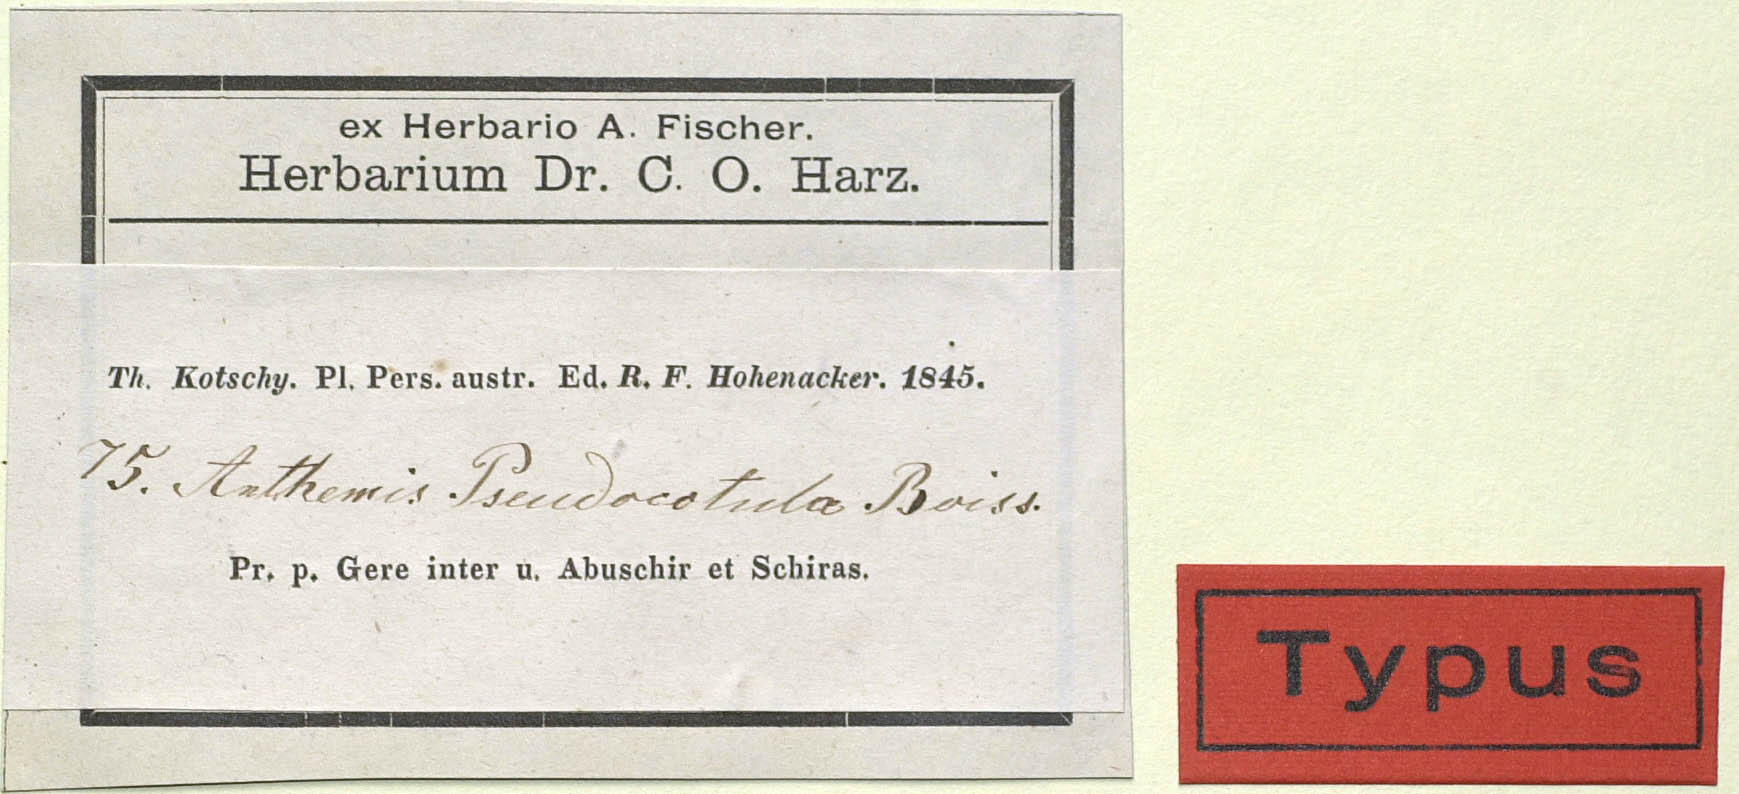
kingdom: Plantae
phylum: Tracheophyta
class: Magnoliopsida
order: Asterales
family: Asteraceae
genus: Anthemis
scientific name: Anthemis pseudocotula
